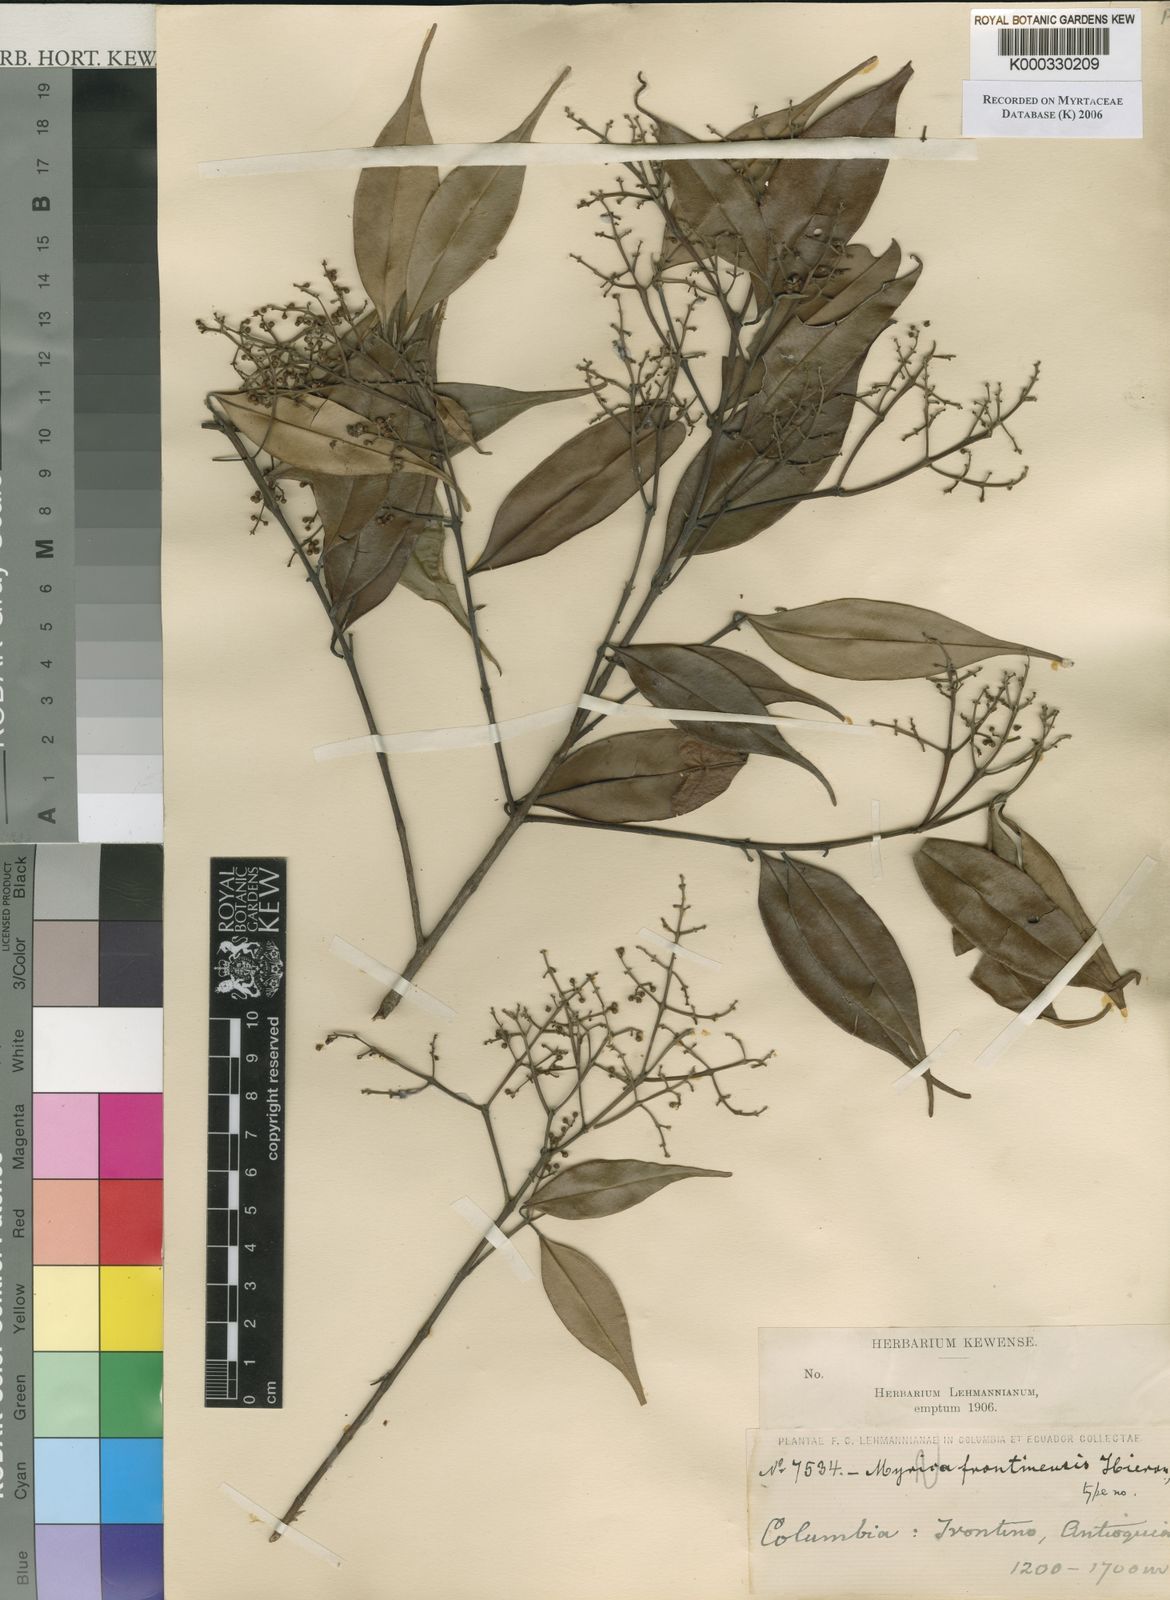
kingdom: Plantae
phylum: Tracheophyta
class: Magnoliopsida
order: Myrtales
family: Myrtaceae
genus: Myrcia
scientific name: Myrcia paivae
